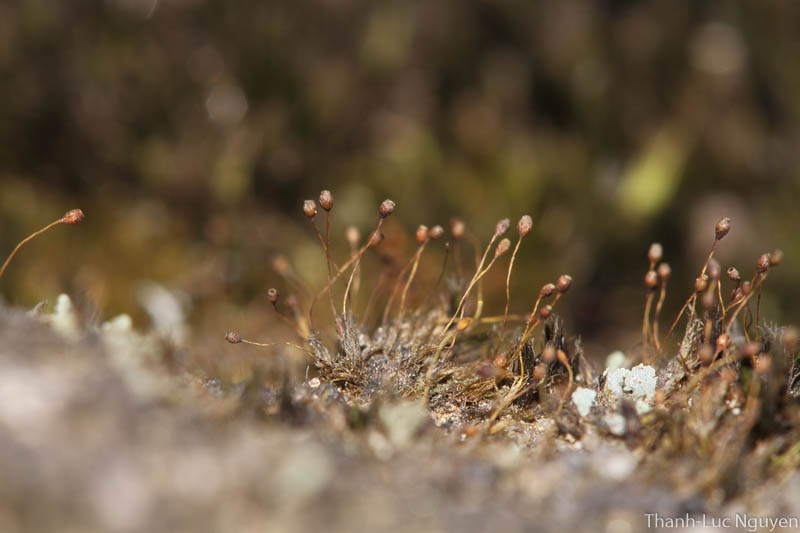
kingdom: Plantae
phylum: Bryophyta
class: Bryopsida
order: Dicranales
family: Dicranaceae
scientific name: Dicranaceae
